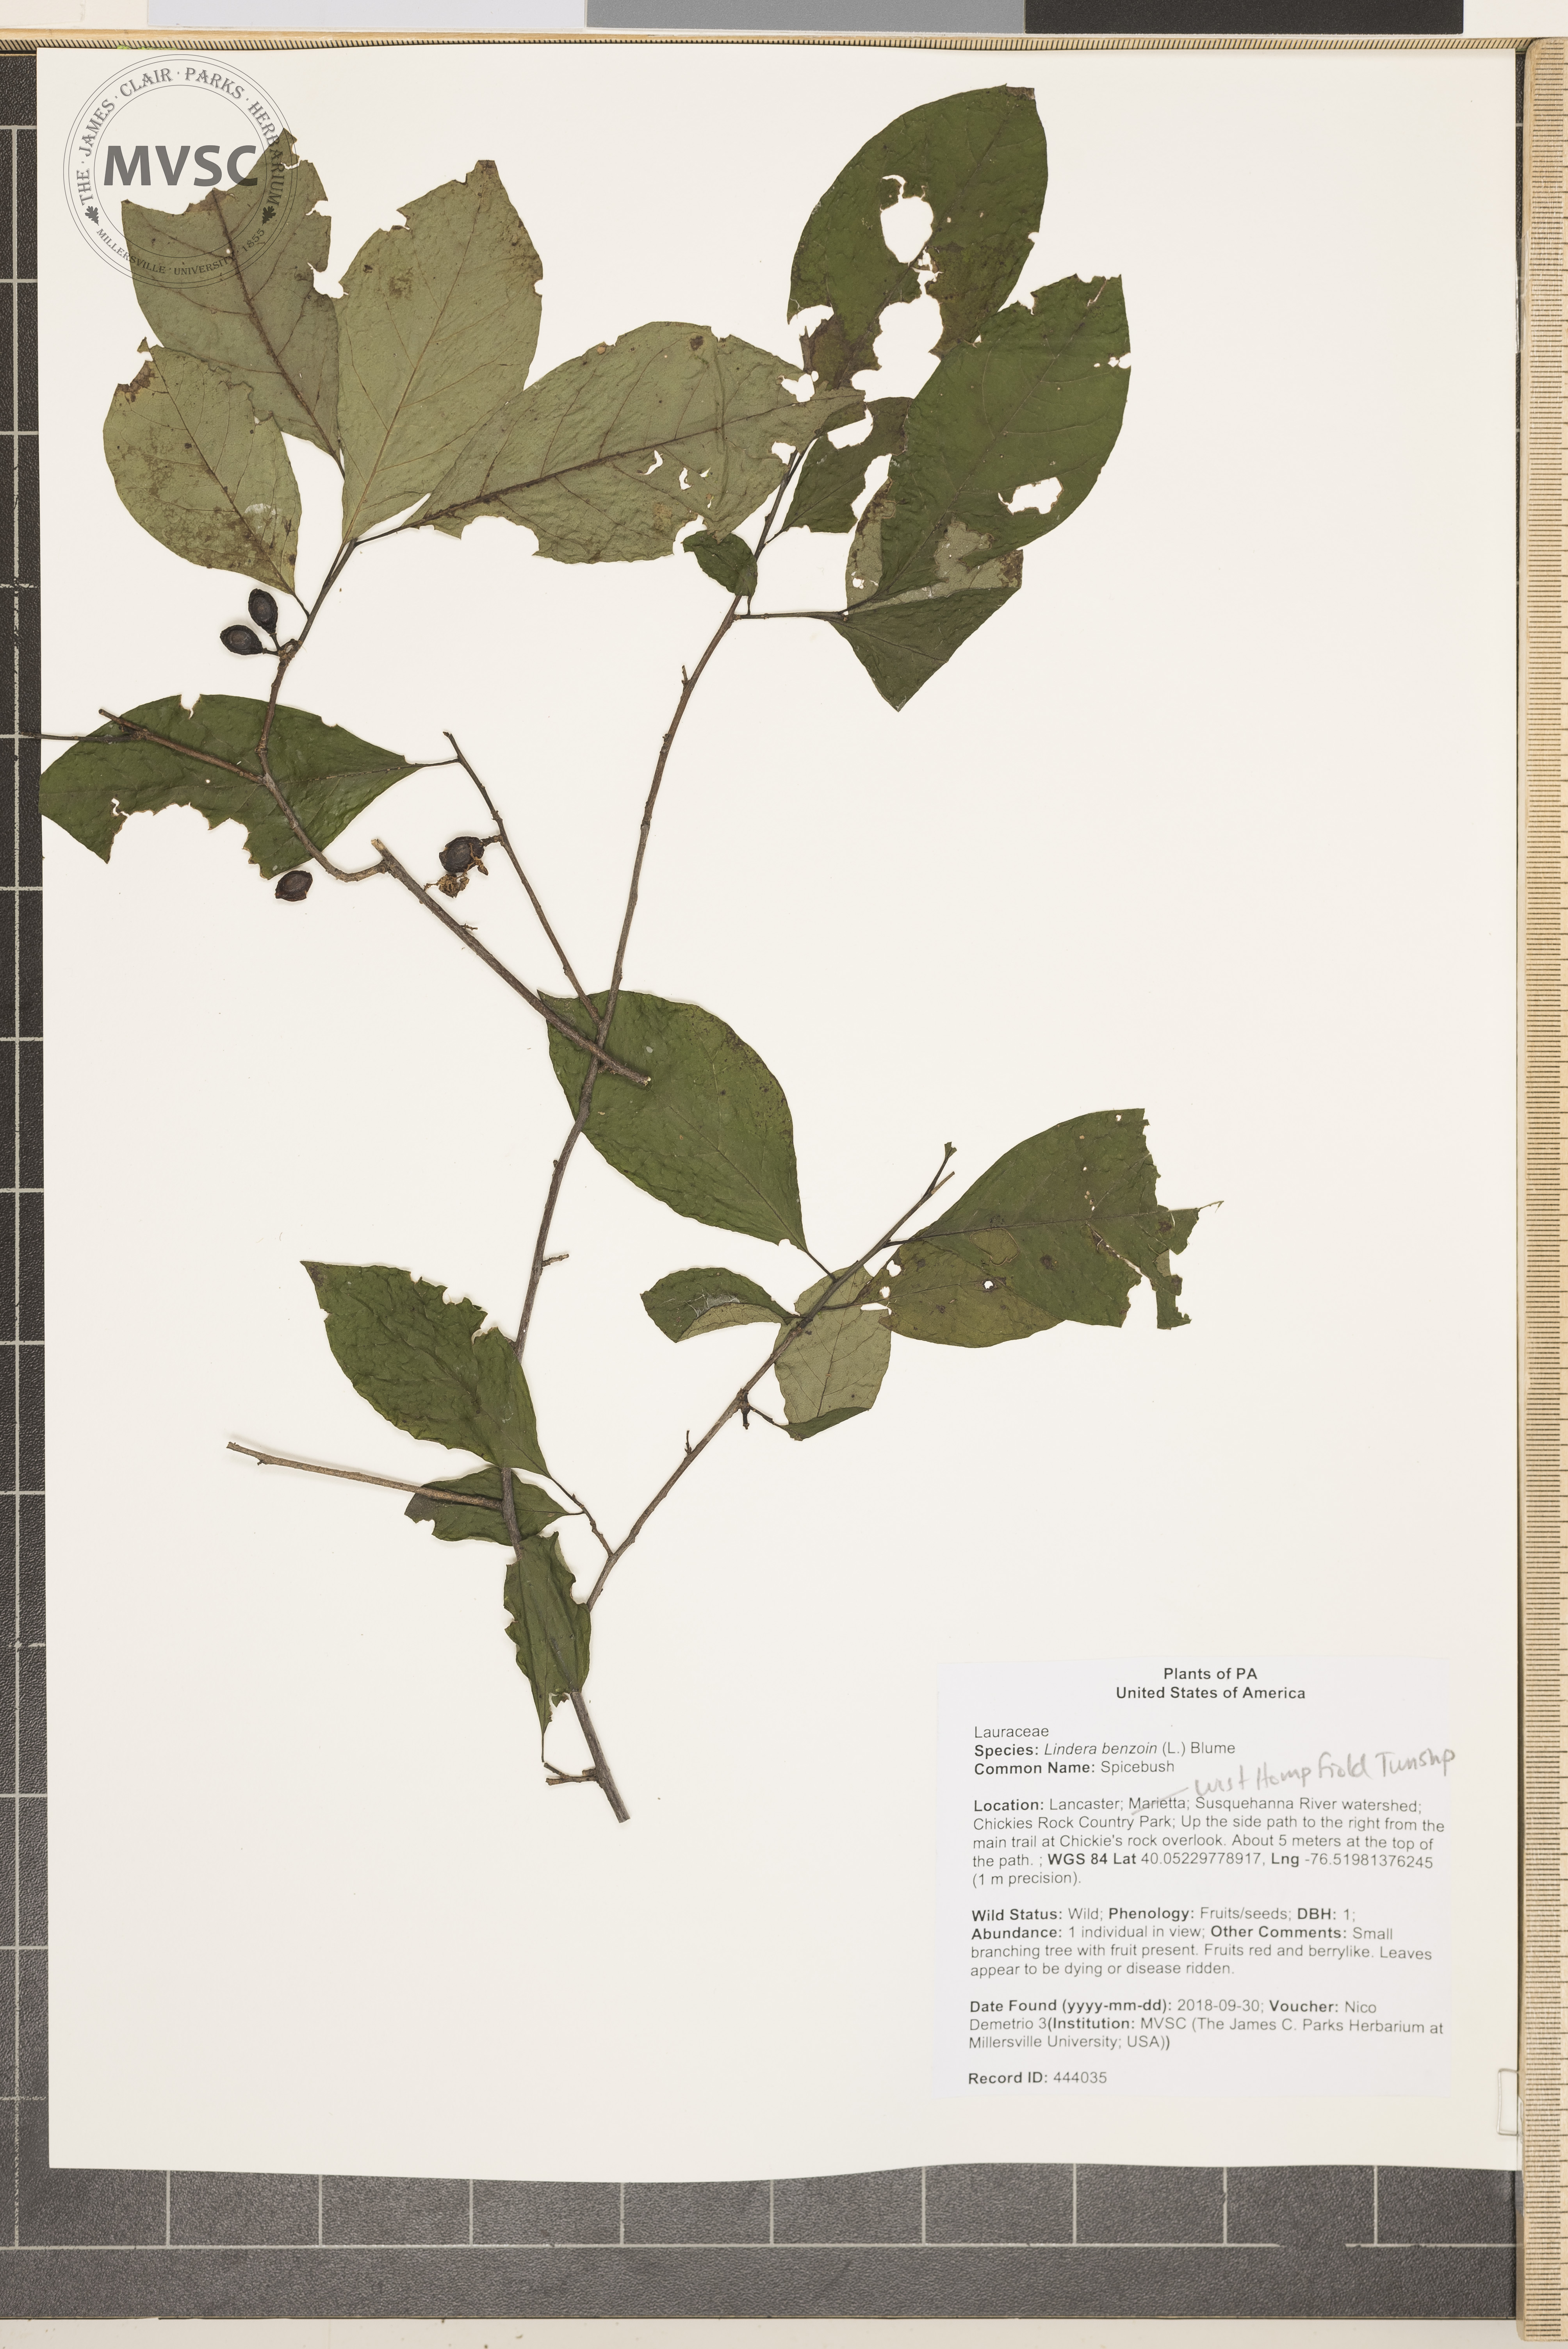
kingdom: Plantae
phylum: Tracheophyta
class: Magnoliopsida
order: Laurales
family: Lauraceae
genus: Lindera
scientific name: Lindera benzoin
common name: Spicebush
